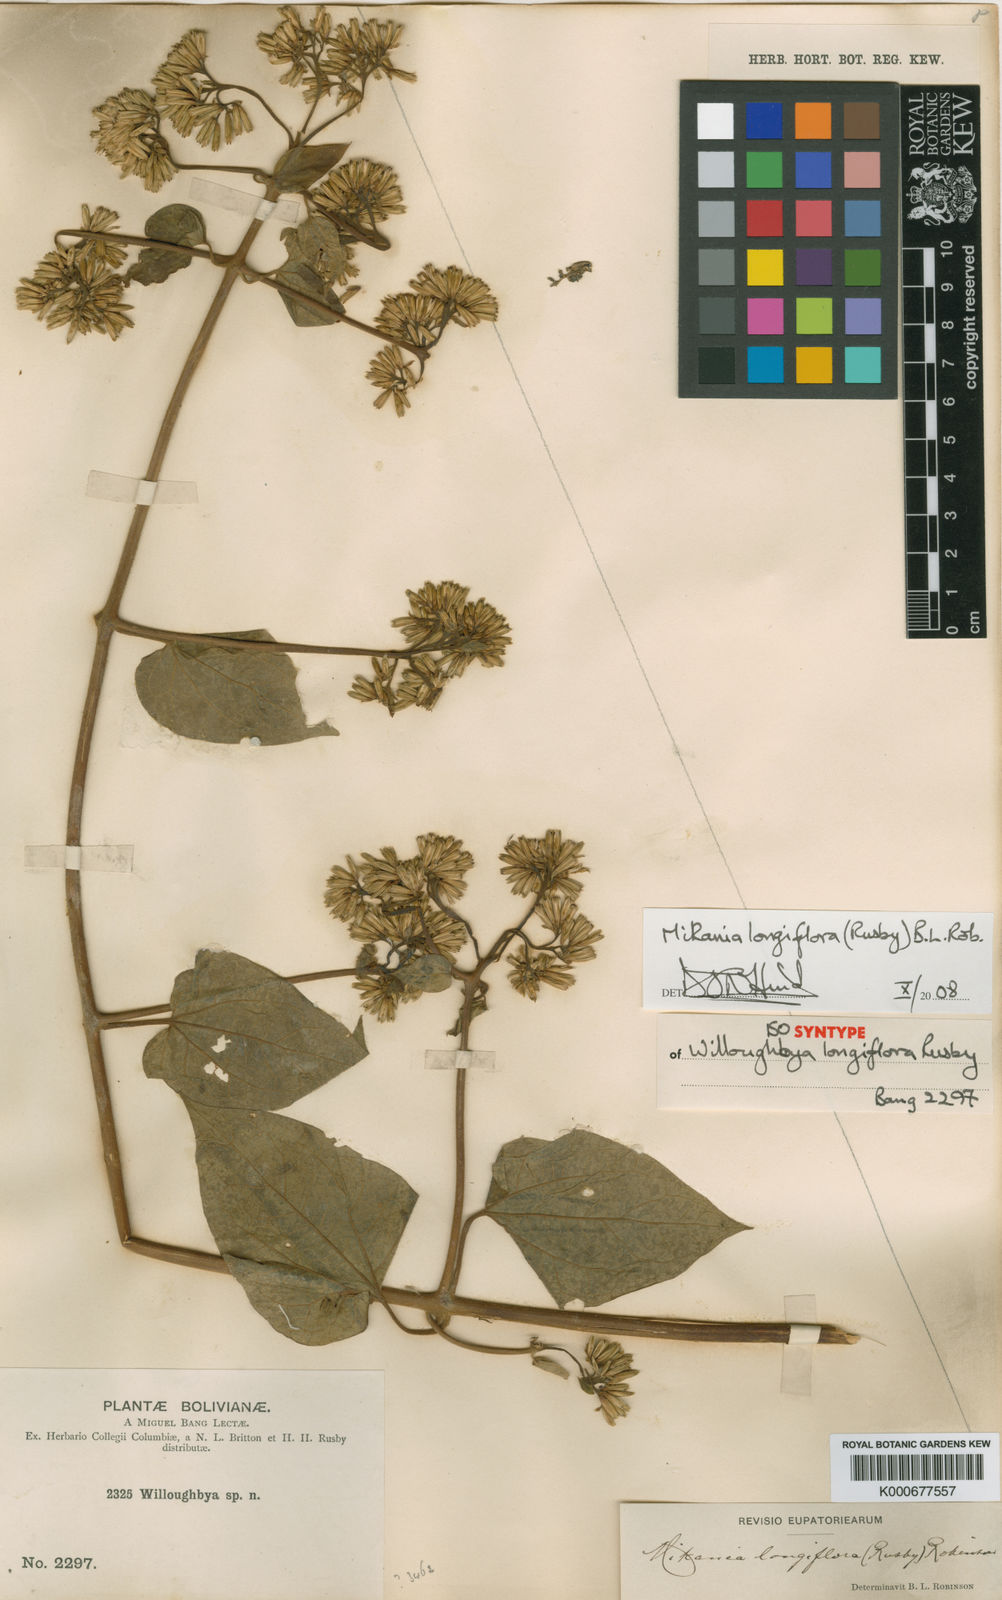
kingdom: Plantae
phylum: Tracheophyta
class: Magnoliopsida
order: Asterales
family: Asteraceae
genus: Mikania
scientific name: Mikania longiflora
